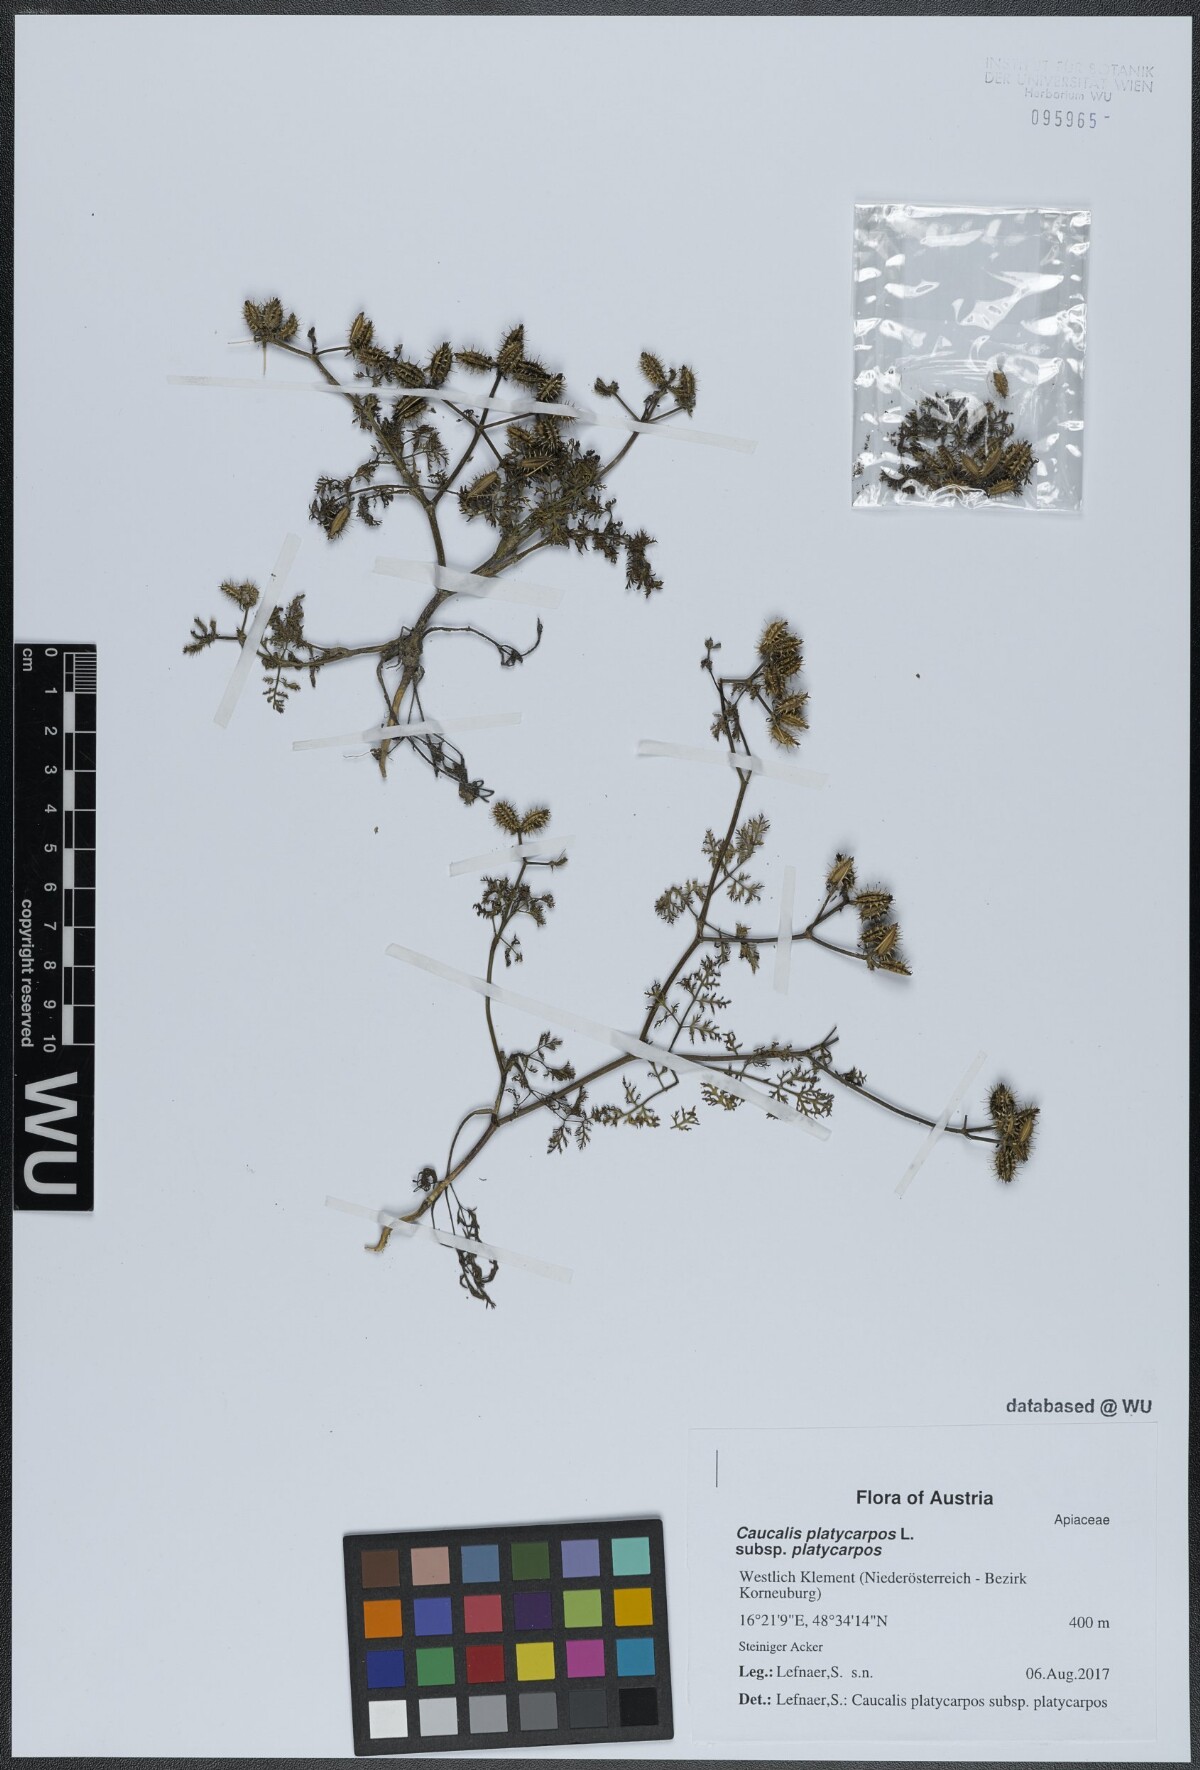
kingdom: Plantae
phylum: Tracheophyta
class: Magnoliopsida
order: Apiales
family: Apiaceae
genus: Caucalis
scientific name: Caucalis platycarpos
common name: Small bur-parsley
